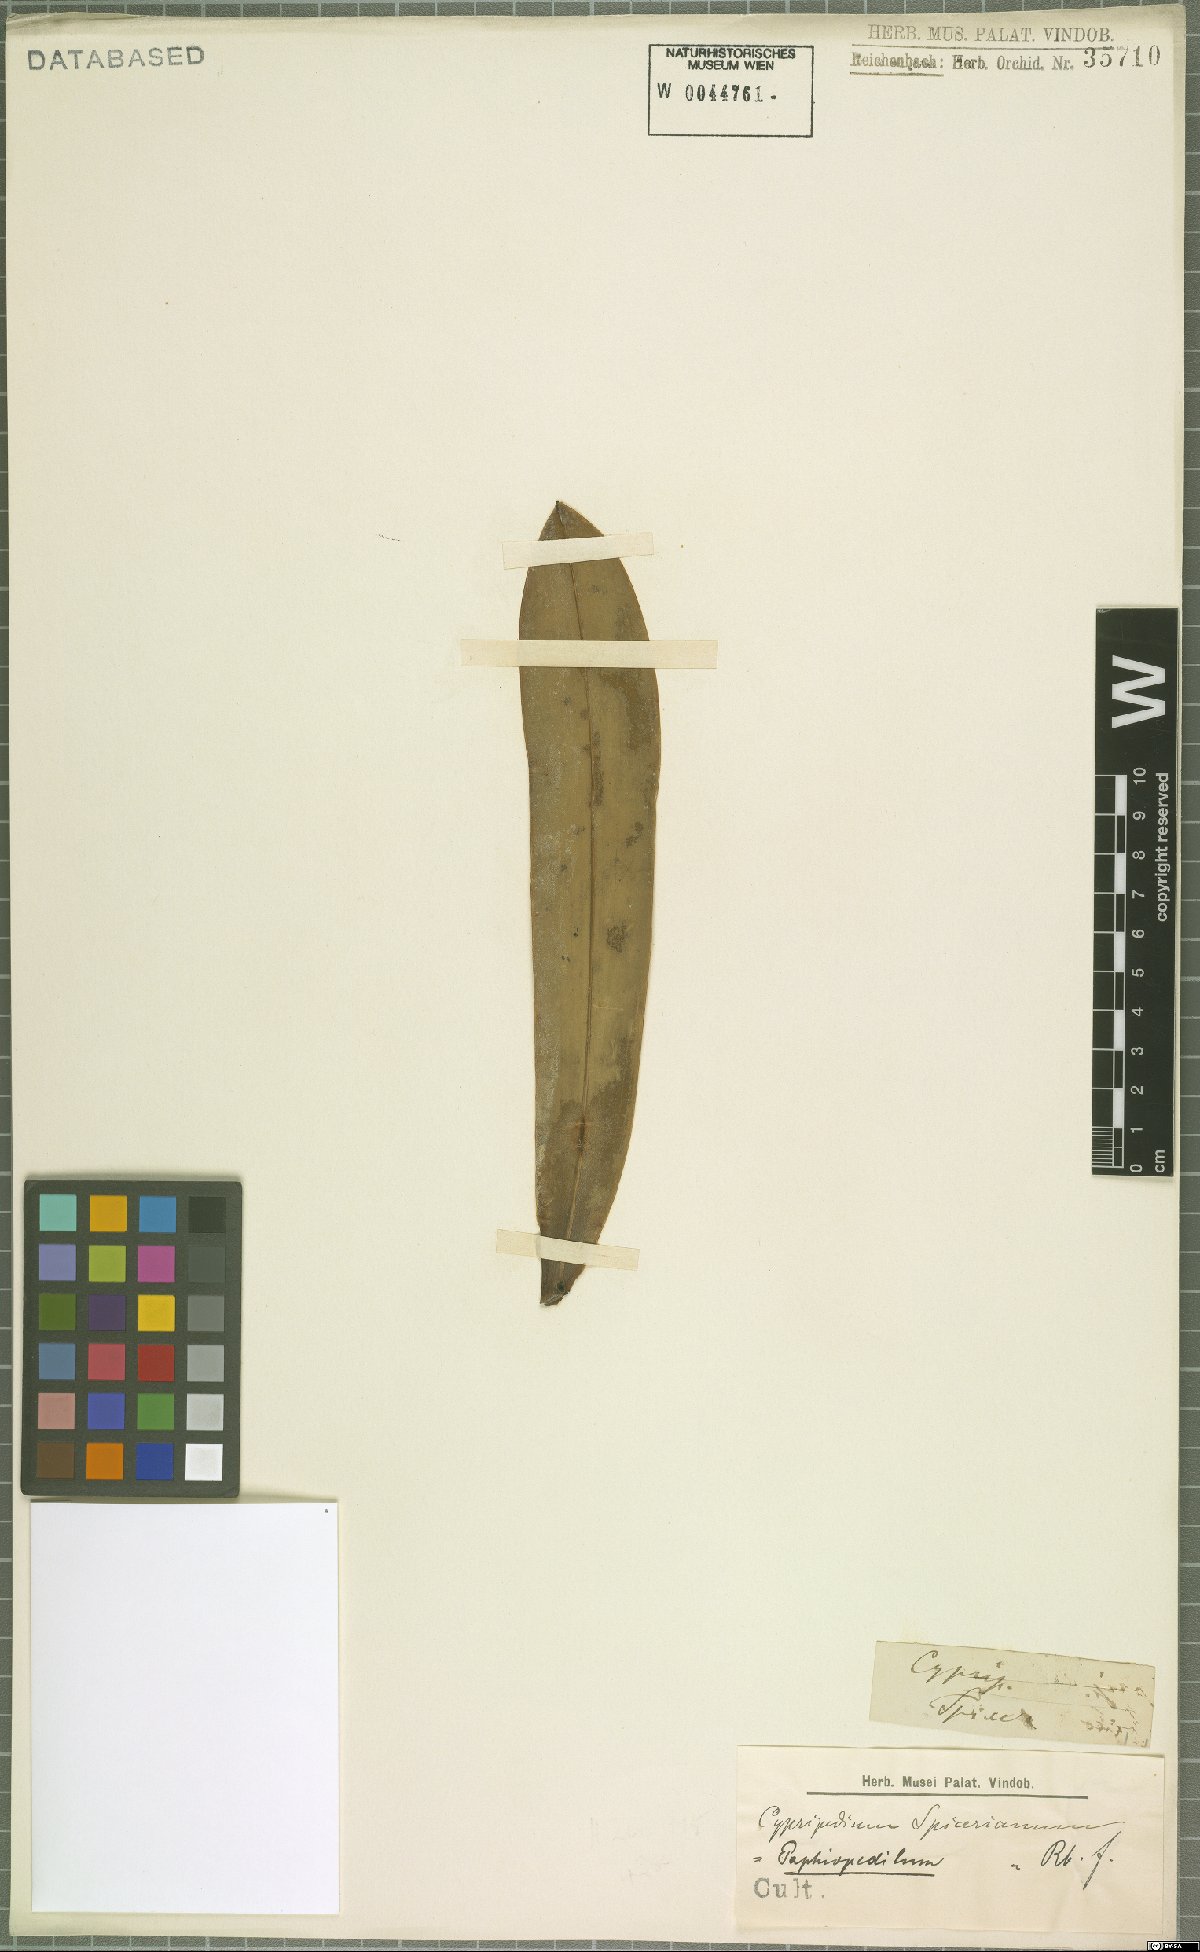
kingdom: Plantae
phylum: Tracheophyta
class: Liliopsida
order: Asparagales
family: Orchidaceae
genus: Paphiopedilum
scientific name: Paphiopedilum spicerianum
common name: Spicer’s paphiopedilum
